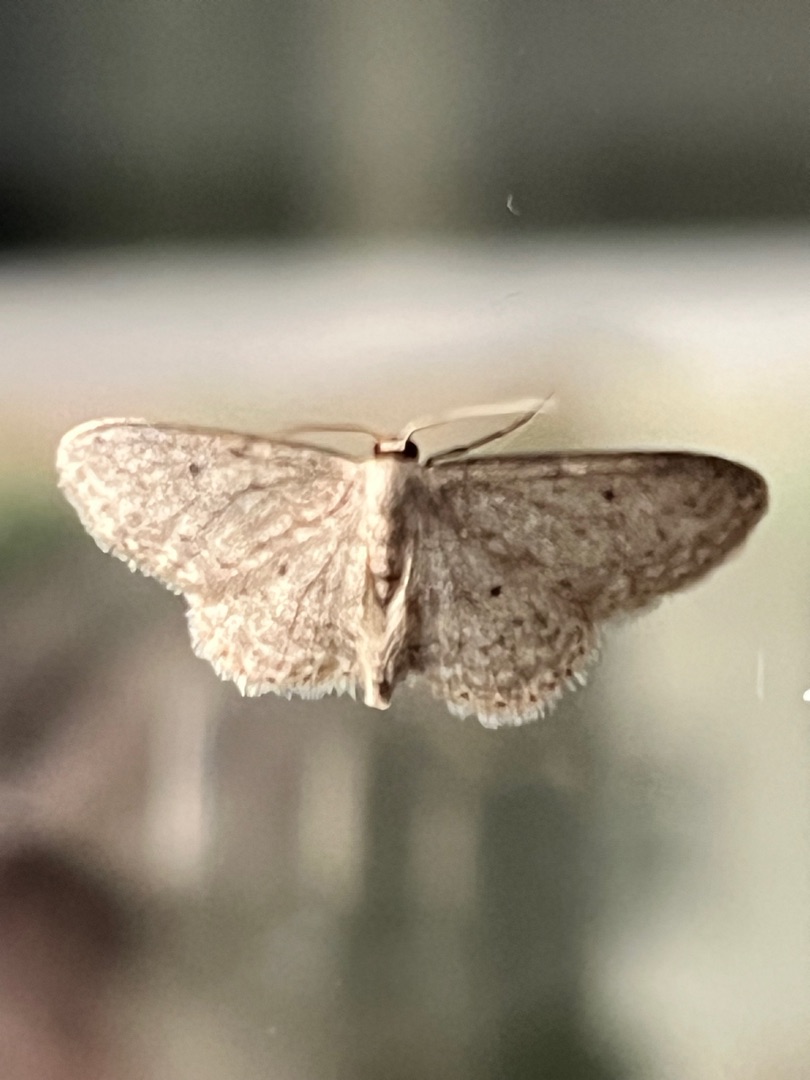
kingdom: Animalia
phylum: Arthropoda
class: Insecta
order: Lepidoptera
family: Geometridae
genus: Idaea
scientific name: Idaea seriata
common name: Gråplettet løvmåler
